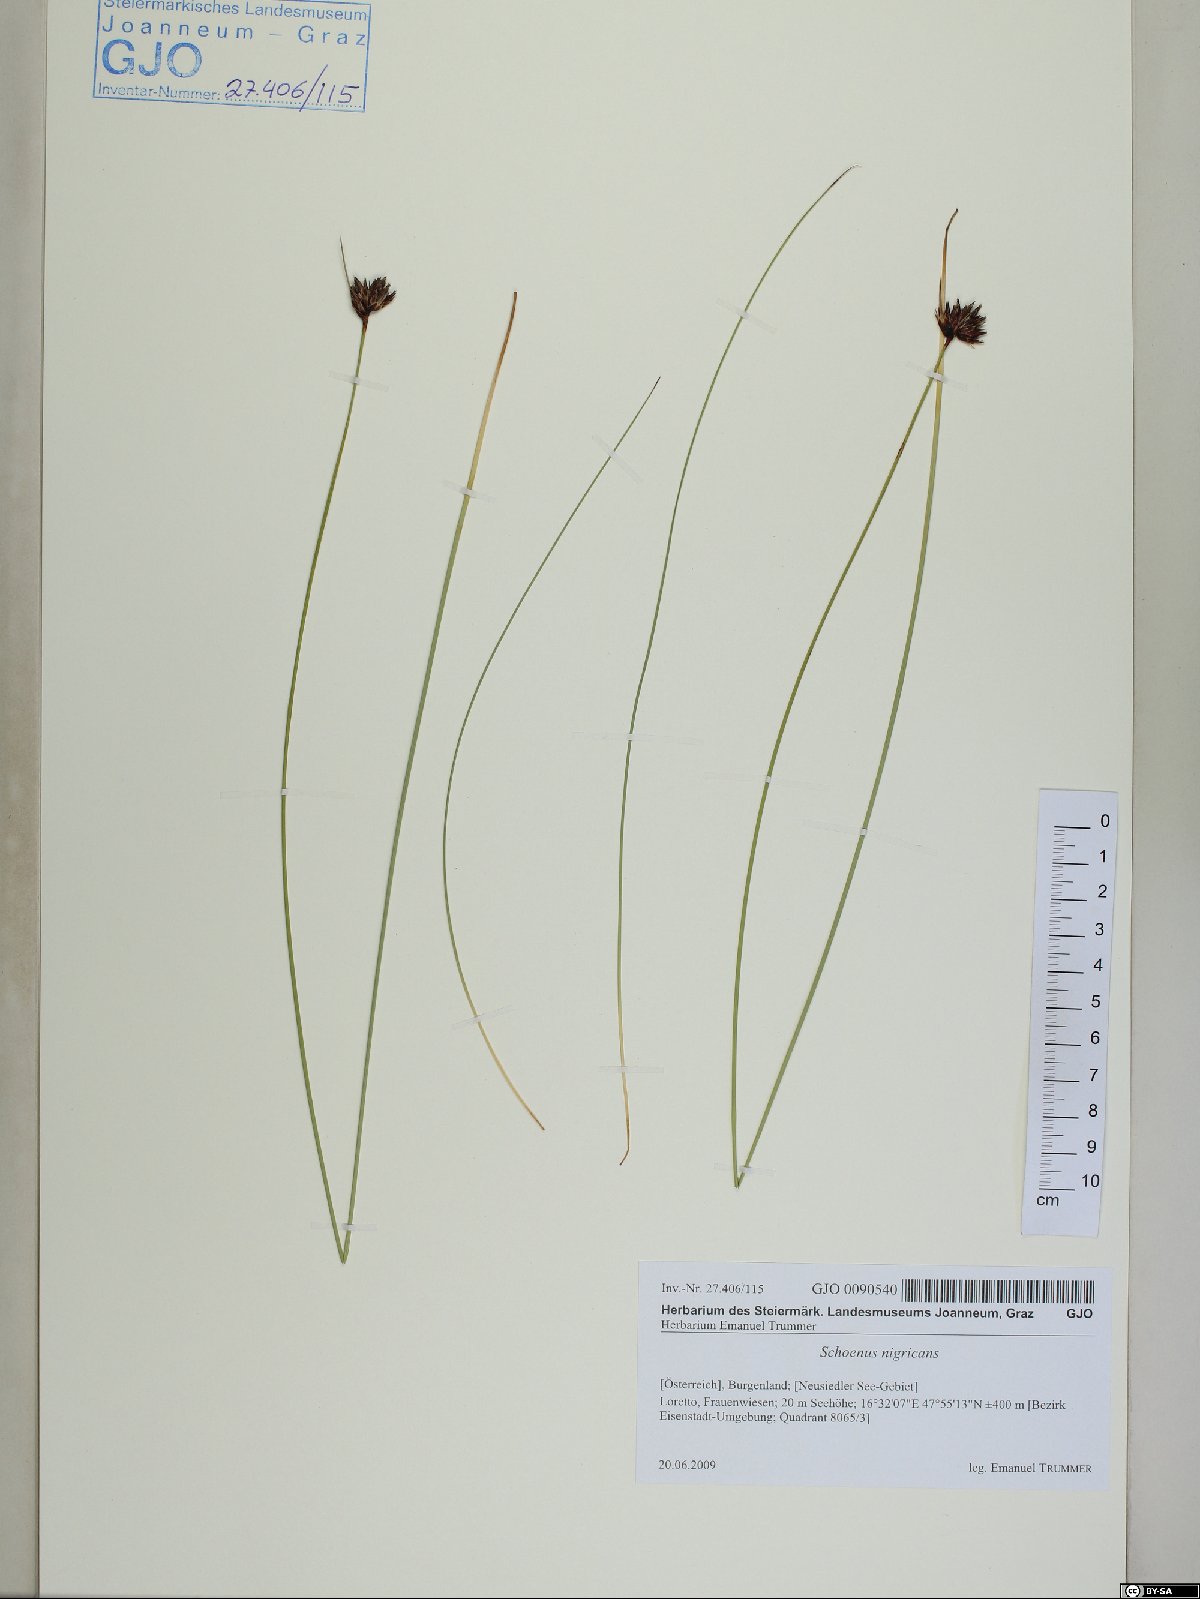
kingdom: Plantae
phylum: Tracheophyta
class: Liliopsida
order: Poales
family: Cyperaceae
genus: Schoenus
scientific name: Schoenus nigricans
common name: Black bog-rush
